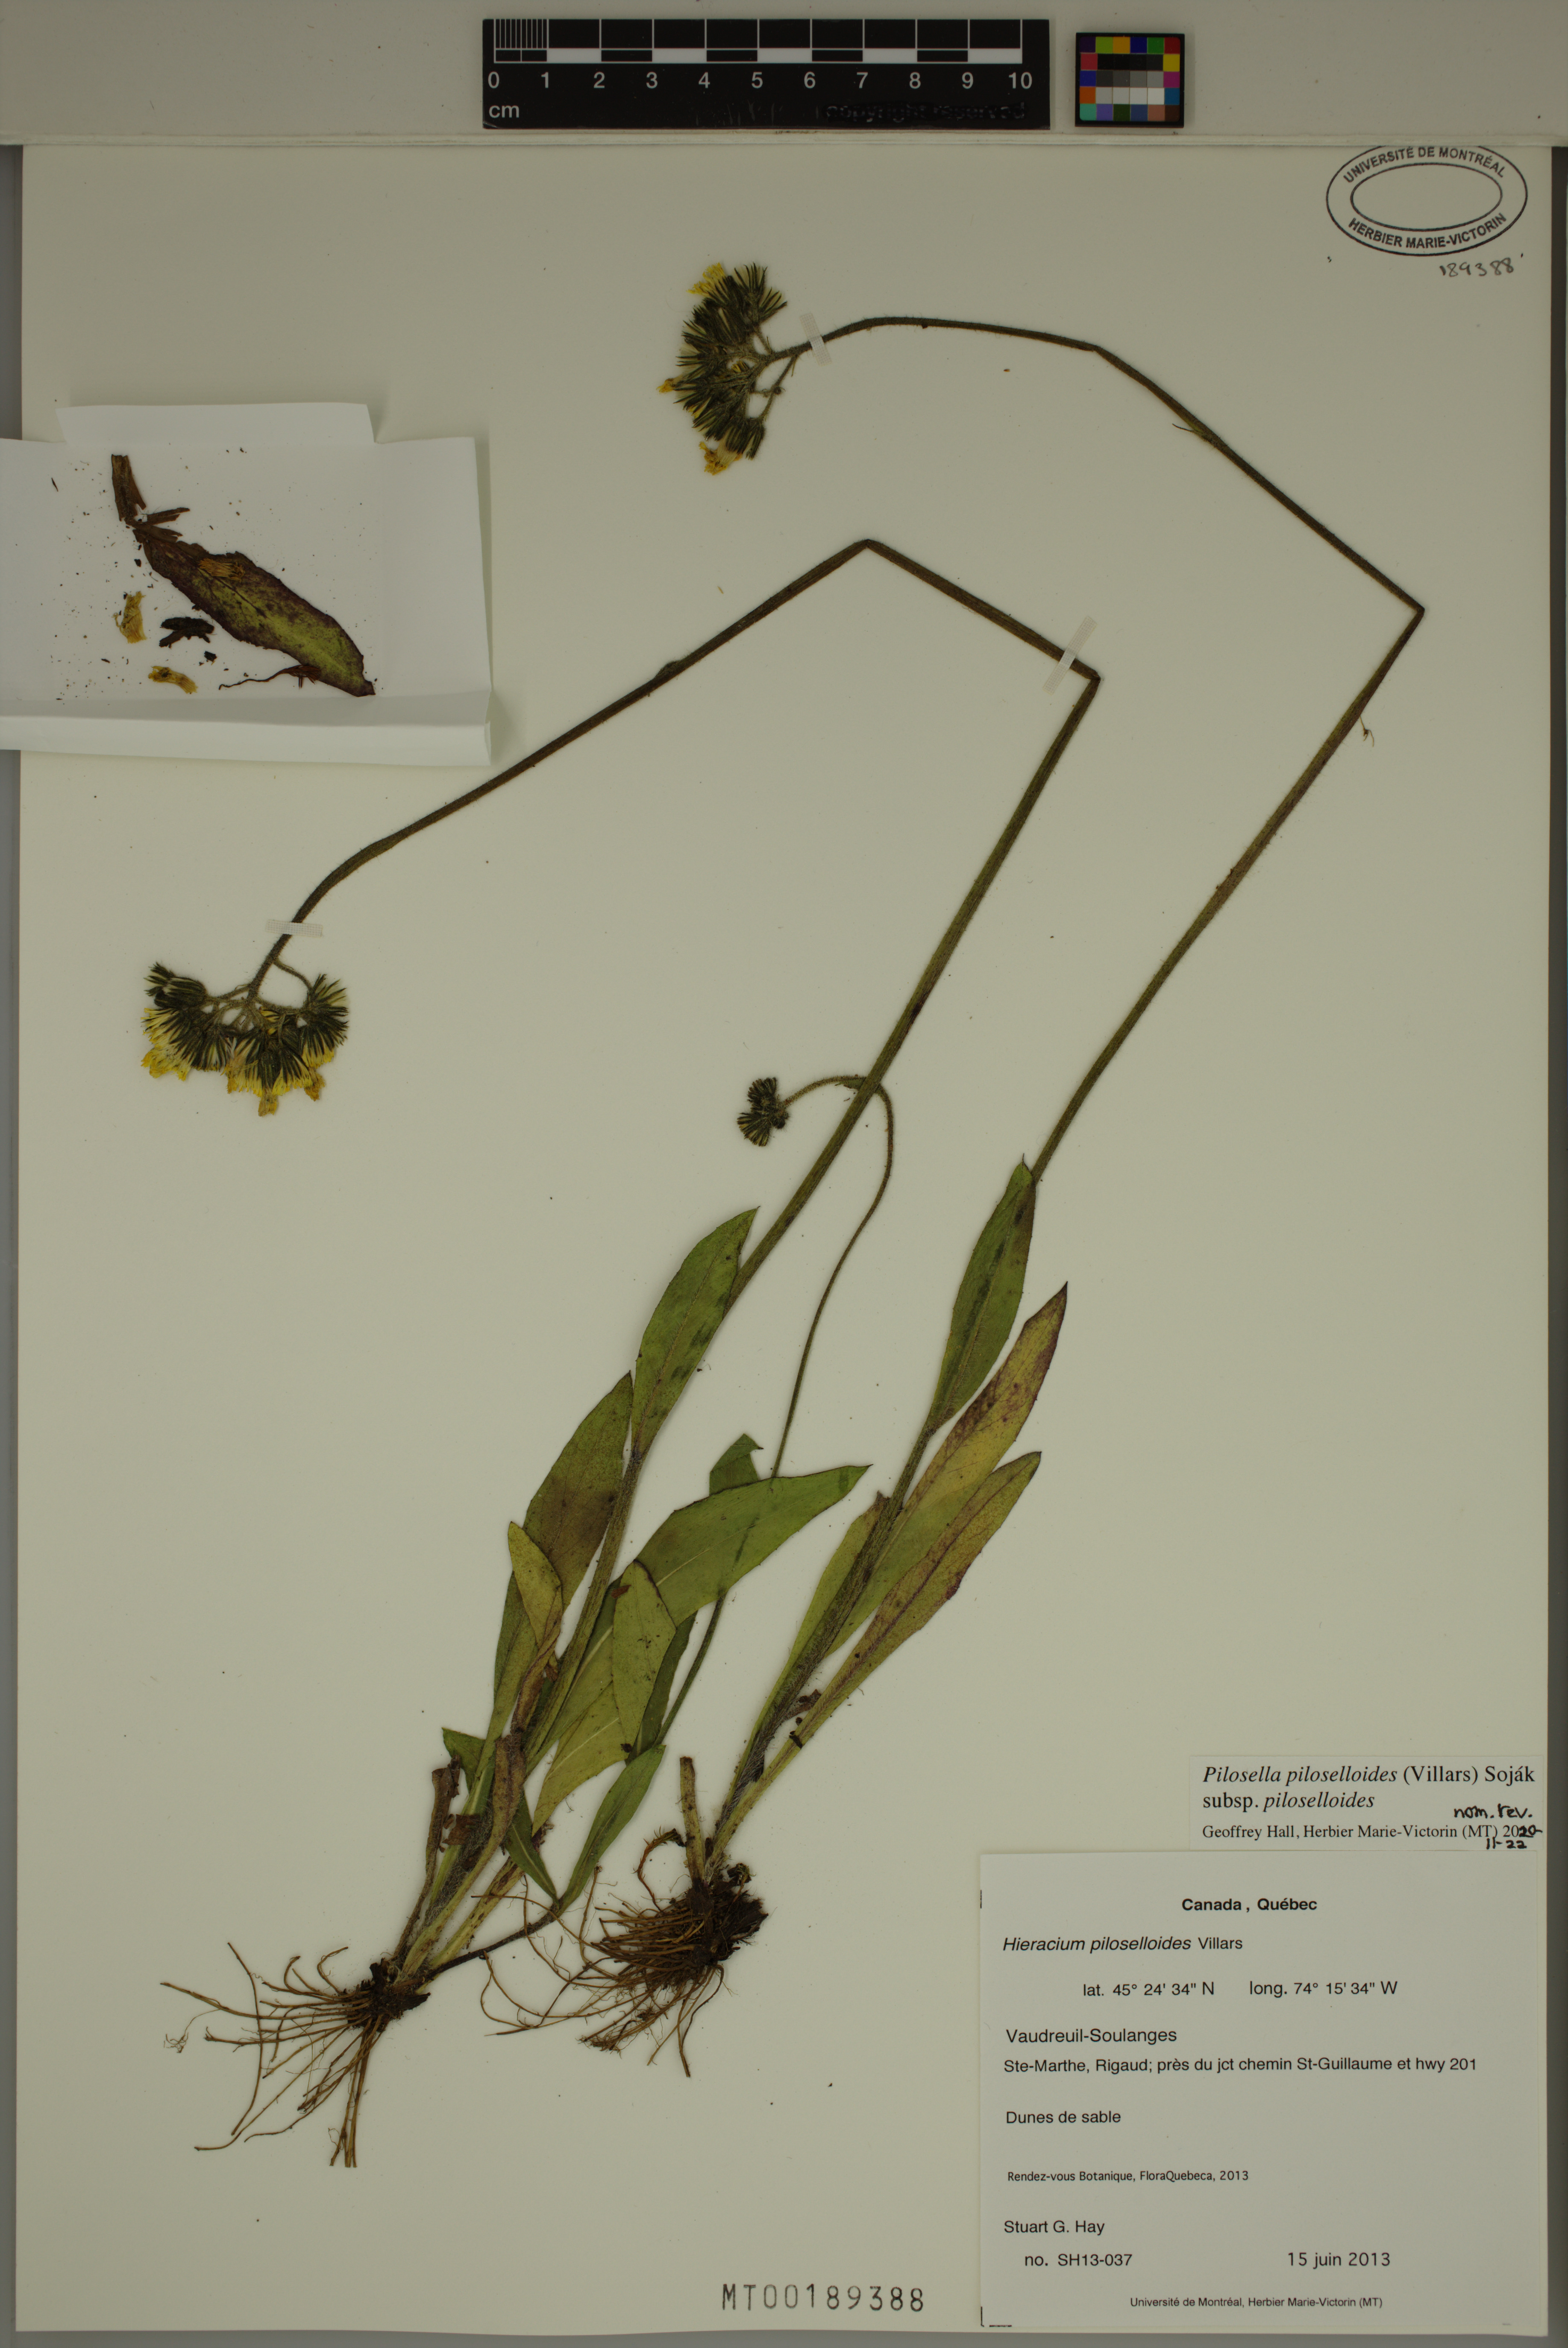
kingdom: Plantae
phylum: Tracheophyta
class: Magnoliopsida
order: Asterales
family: Asteraceae
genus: Pilosella
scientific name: Pilosella piloselloides
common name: Glaucous king-devil
